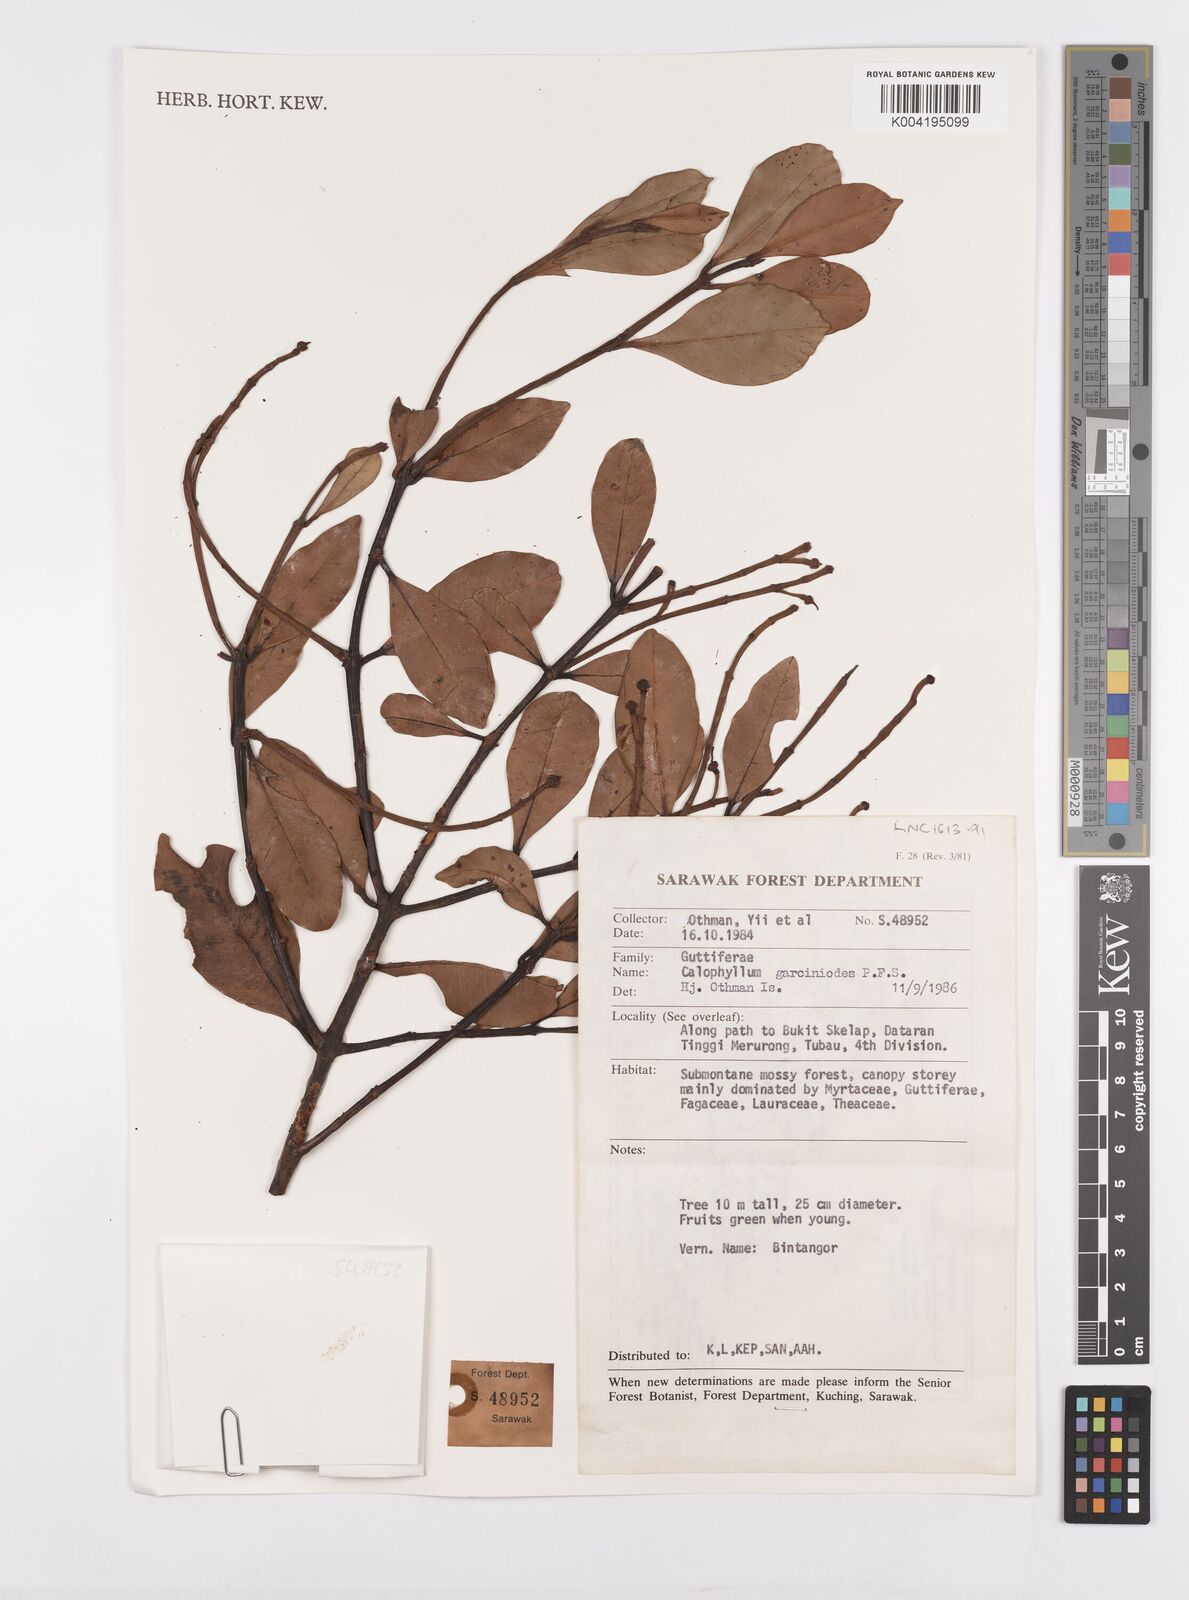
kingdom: Plantae
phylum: Tracheophyta
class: Magnoliopsida
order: Malpighiales
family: Calophyllaceae
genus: Calophyllum
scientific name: Calophyllum garcinioides
